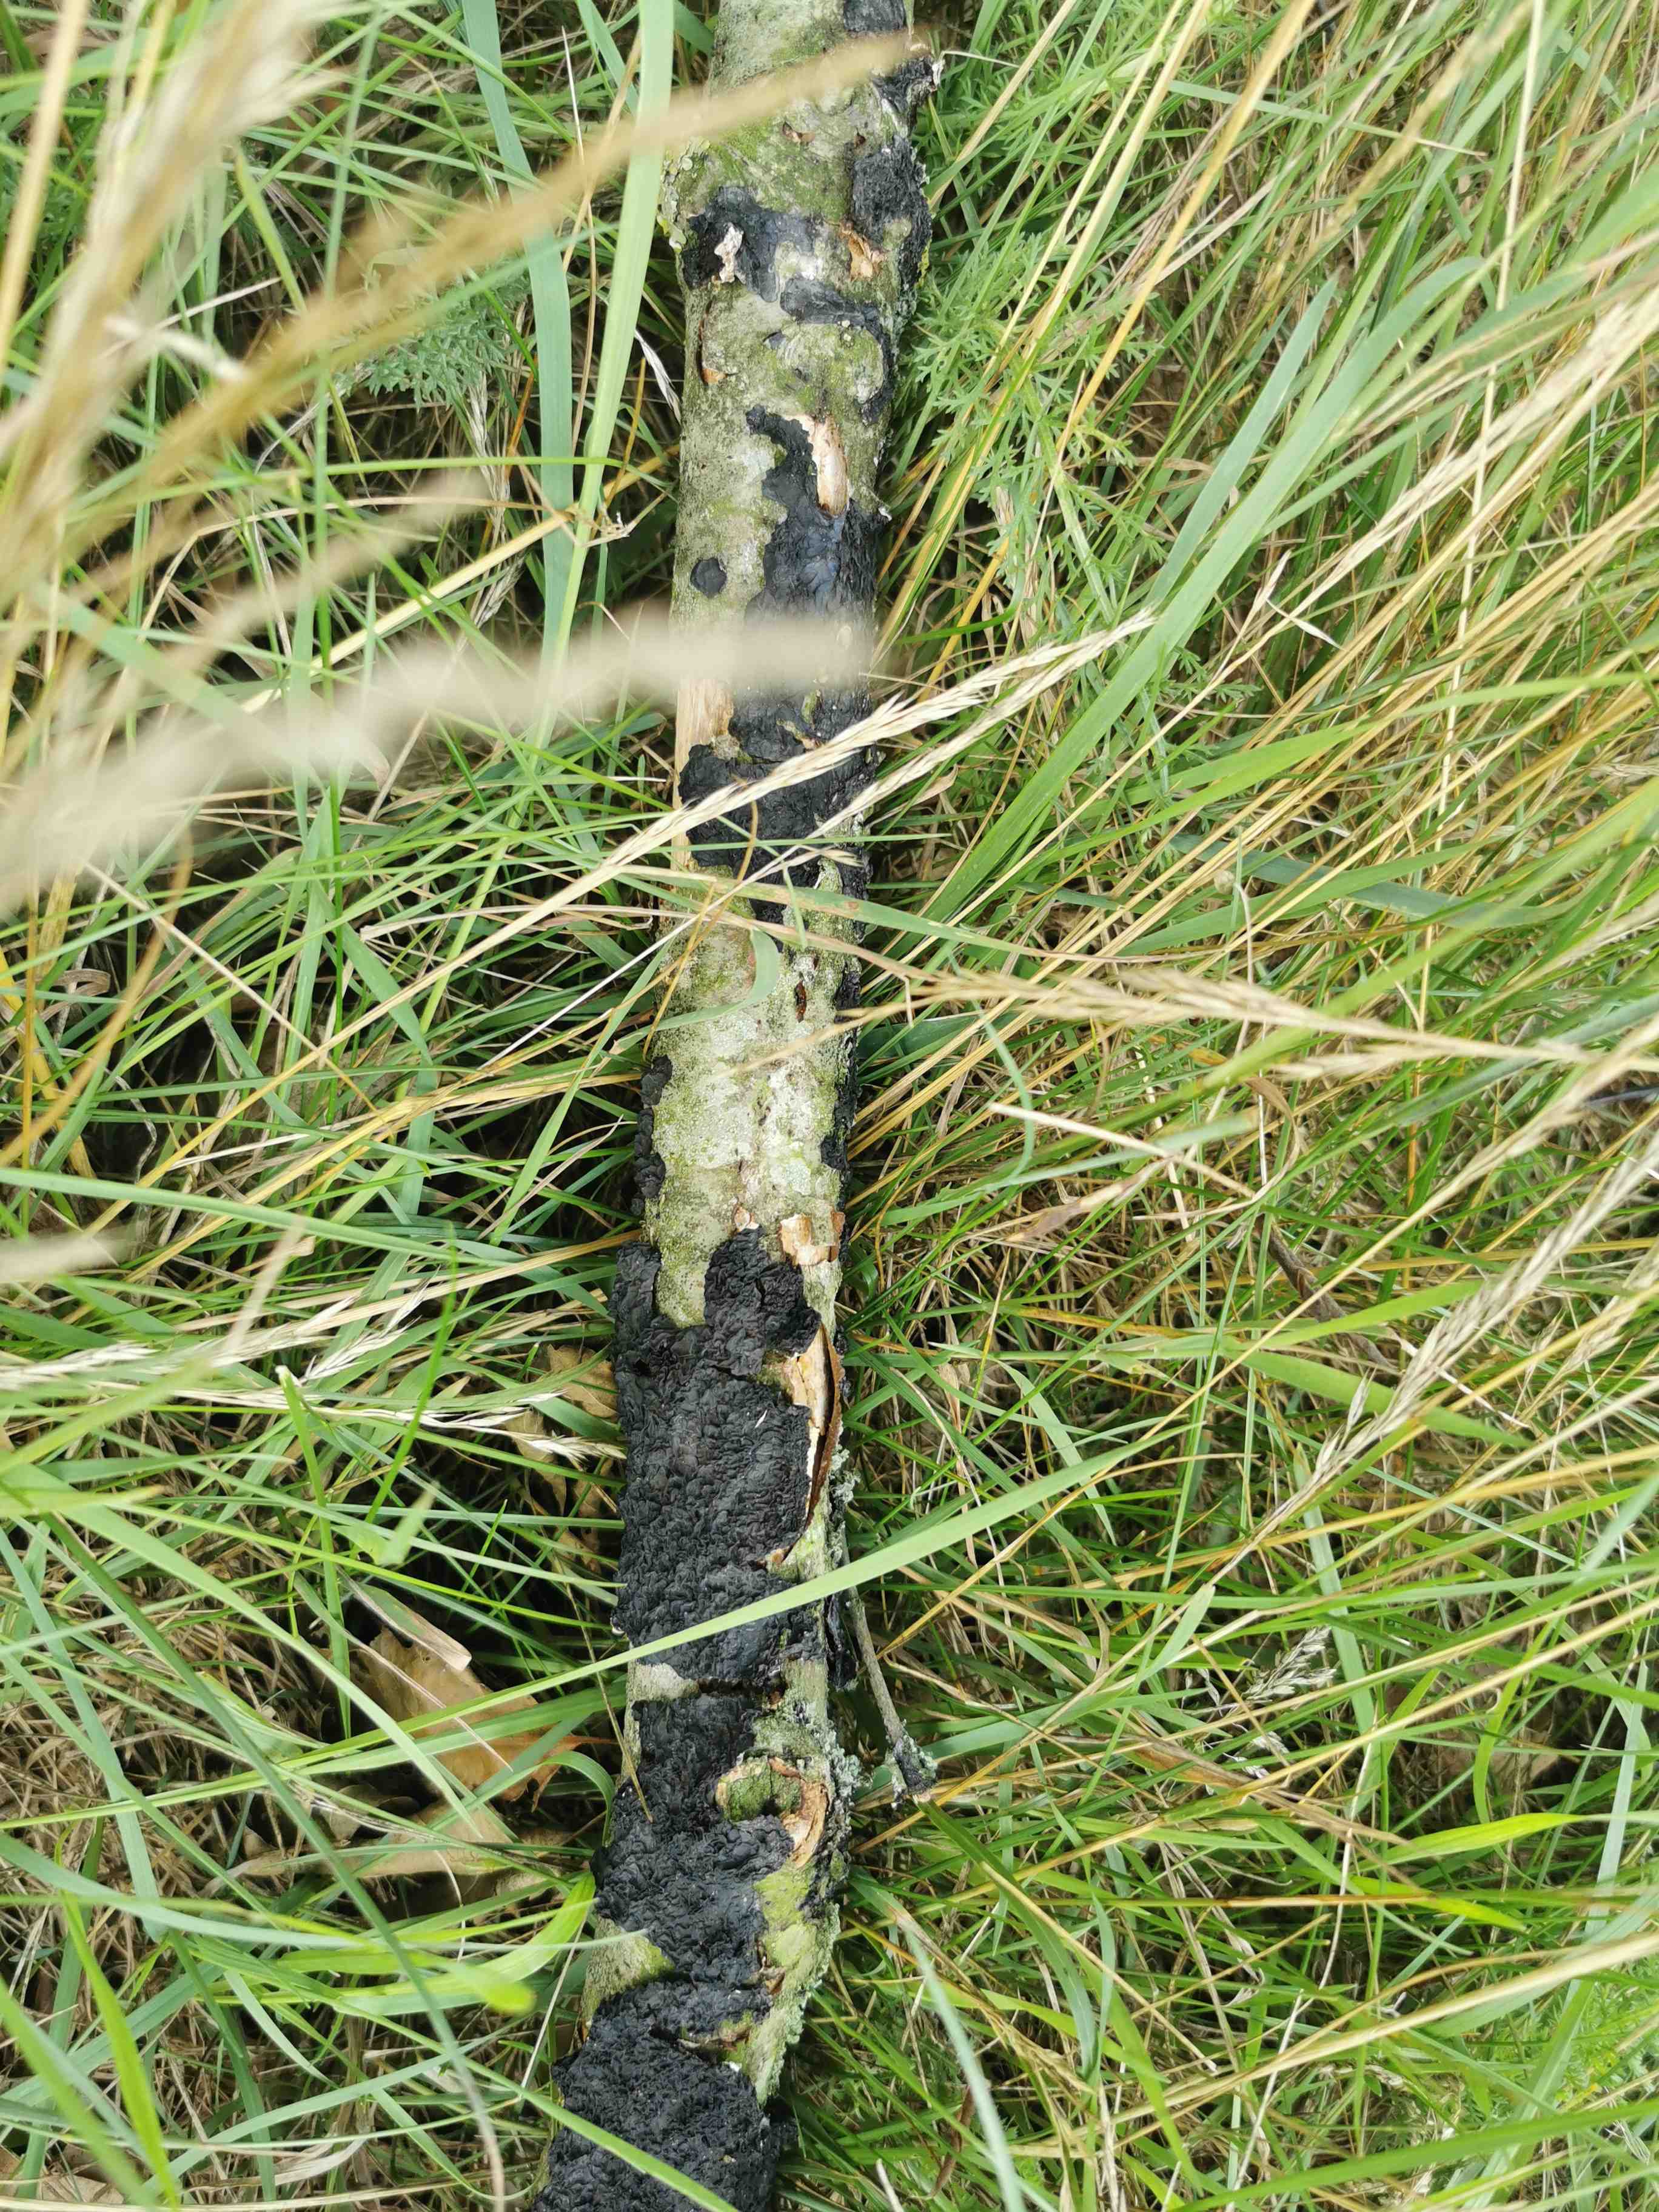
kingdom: Fungi
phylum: Basidiomycota
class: Agaricomycetes
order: Auriculariales
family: Auriculariaceae
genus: Exidia
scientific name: Exidia nigricans
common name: almindelig bævretop
